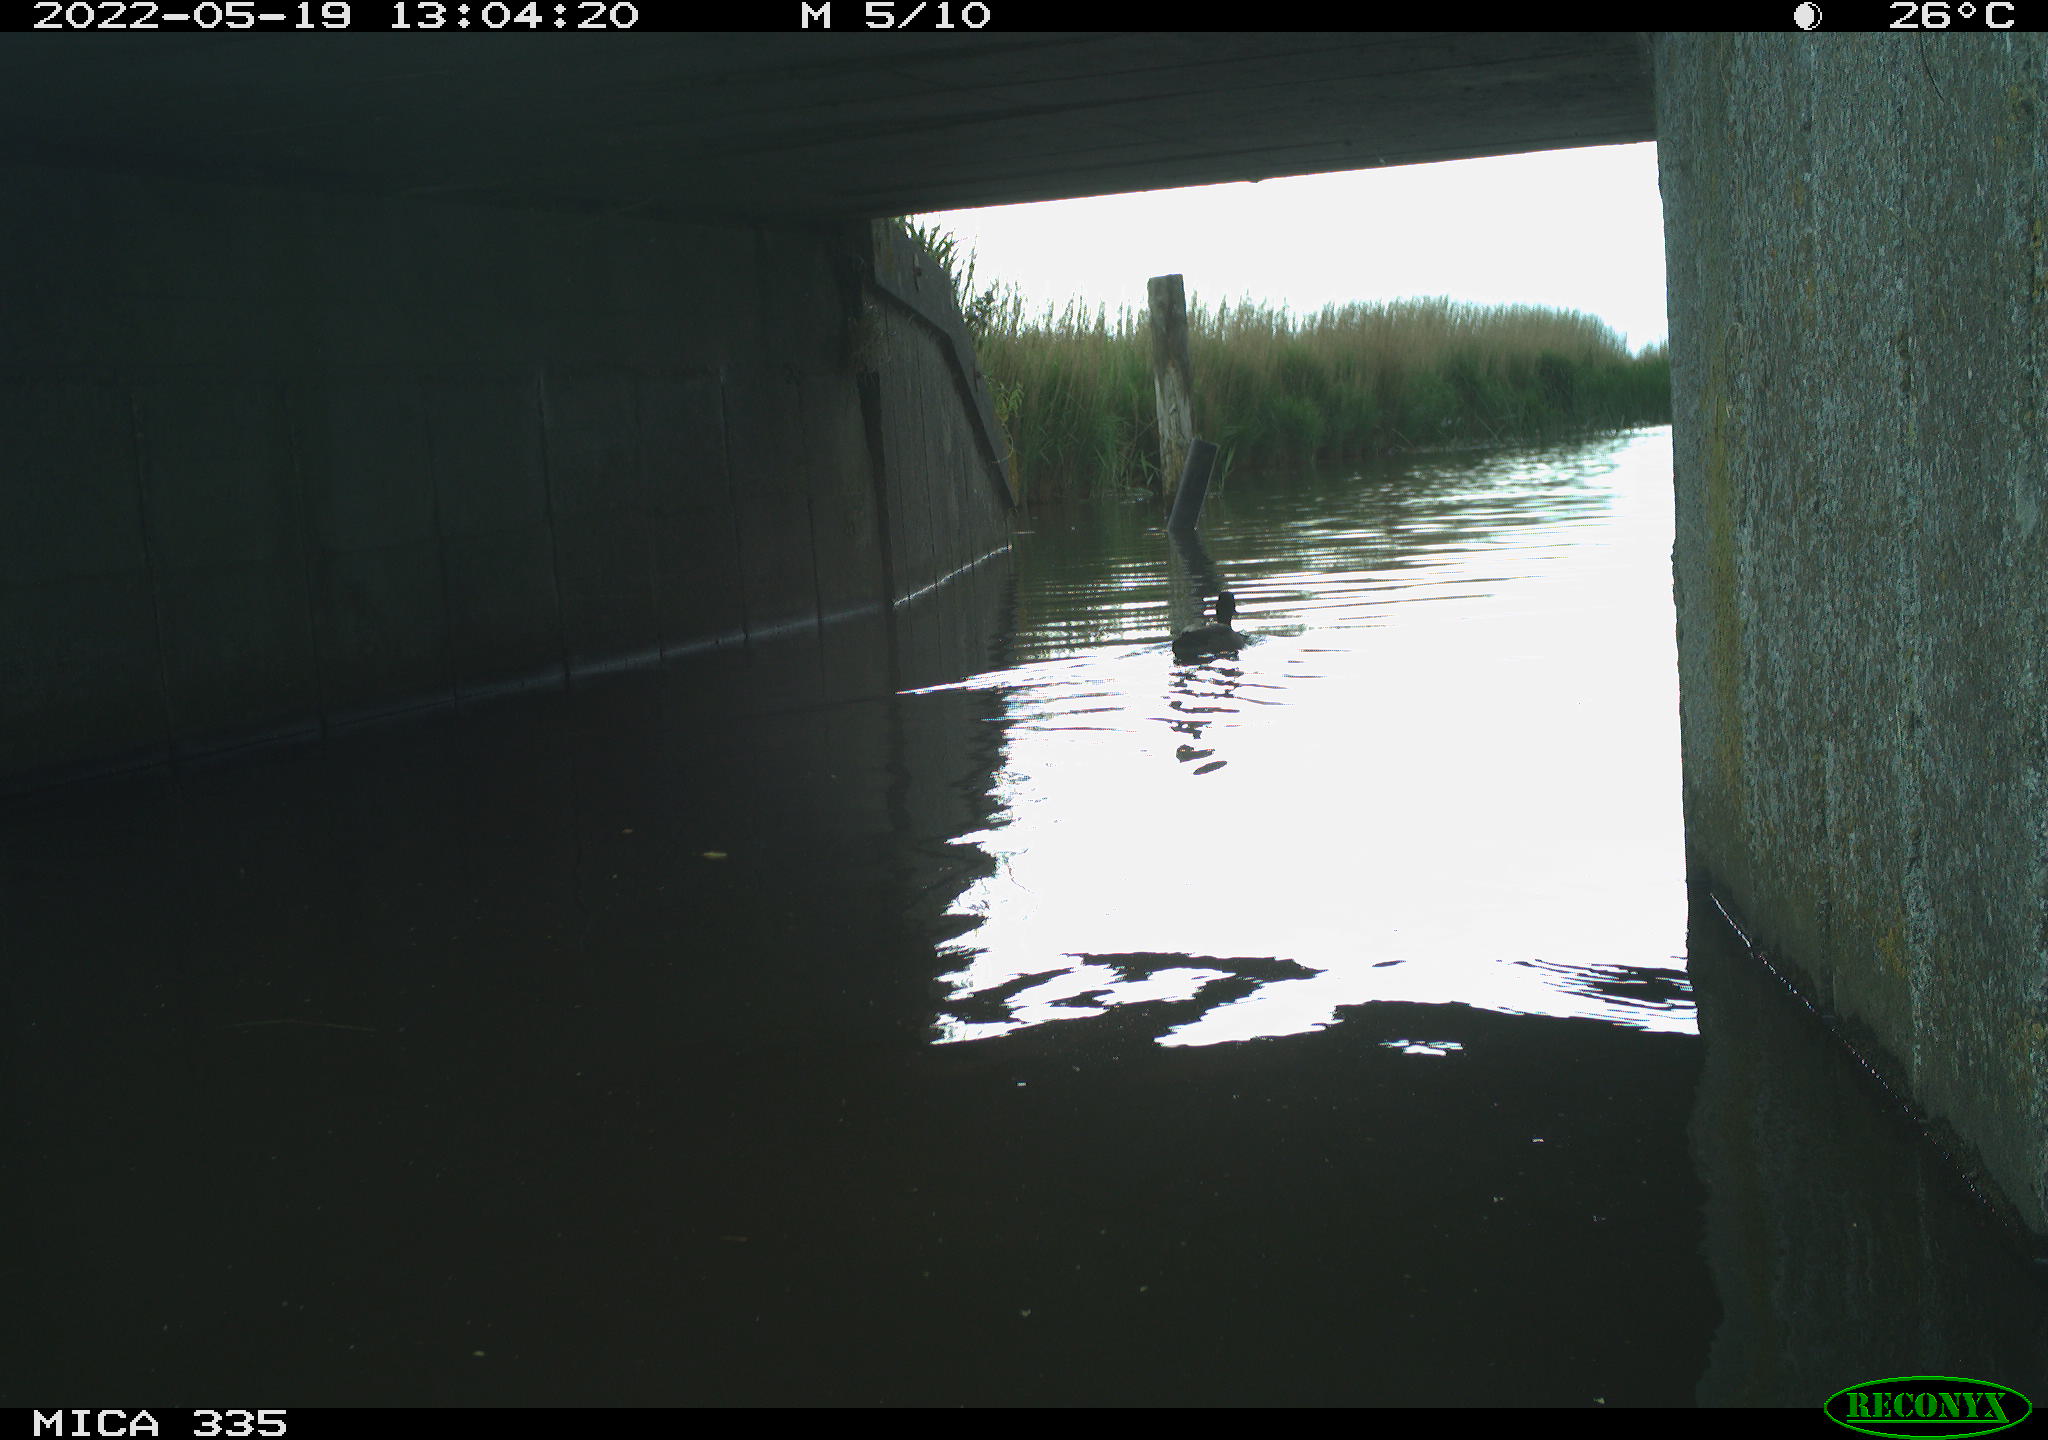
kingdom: Animalia
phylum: Chordata
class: Aves
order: Anseriformes
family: Anatidae
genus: Anas
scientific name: Anas platyrhynchos
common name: Mallard
